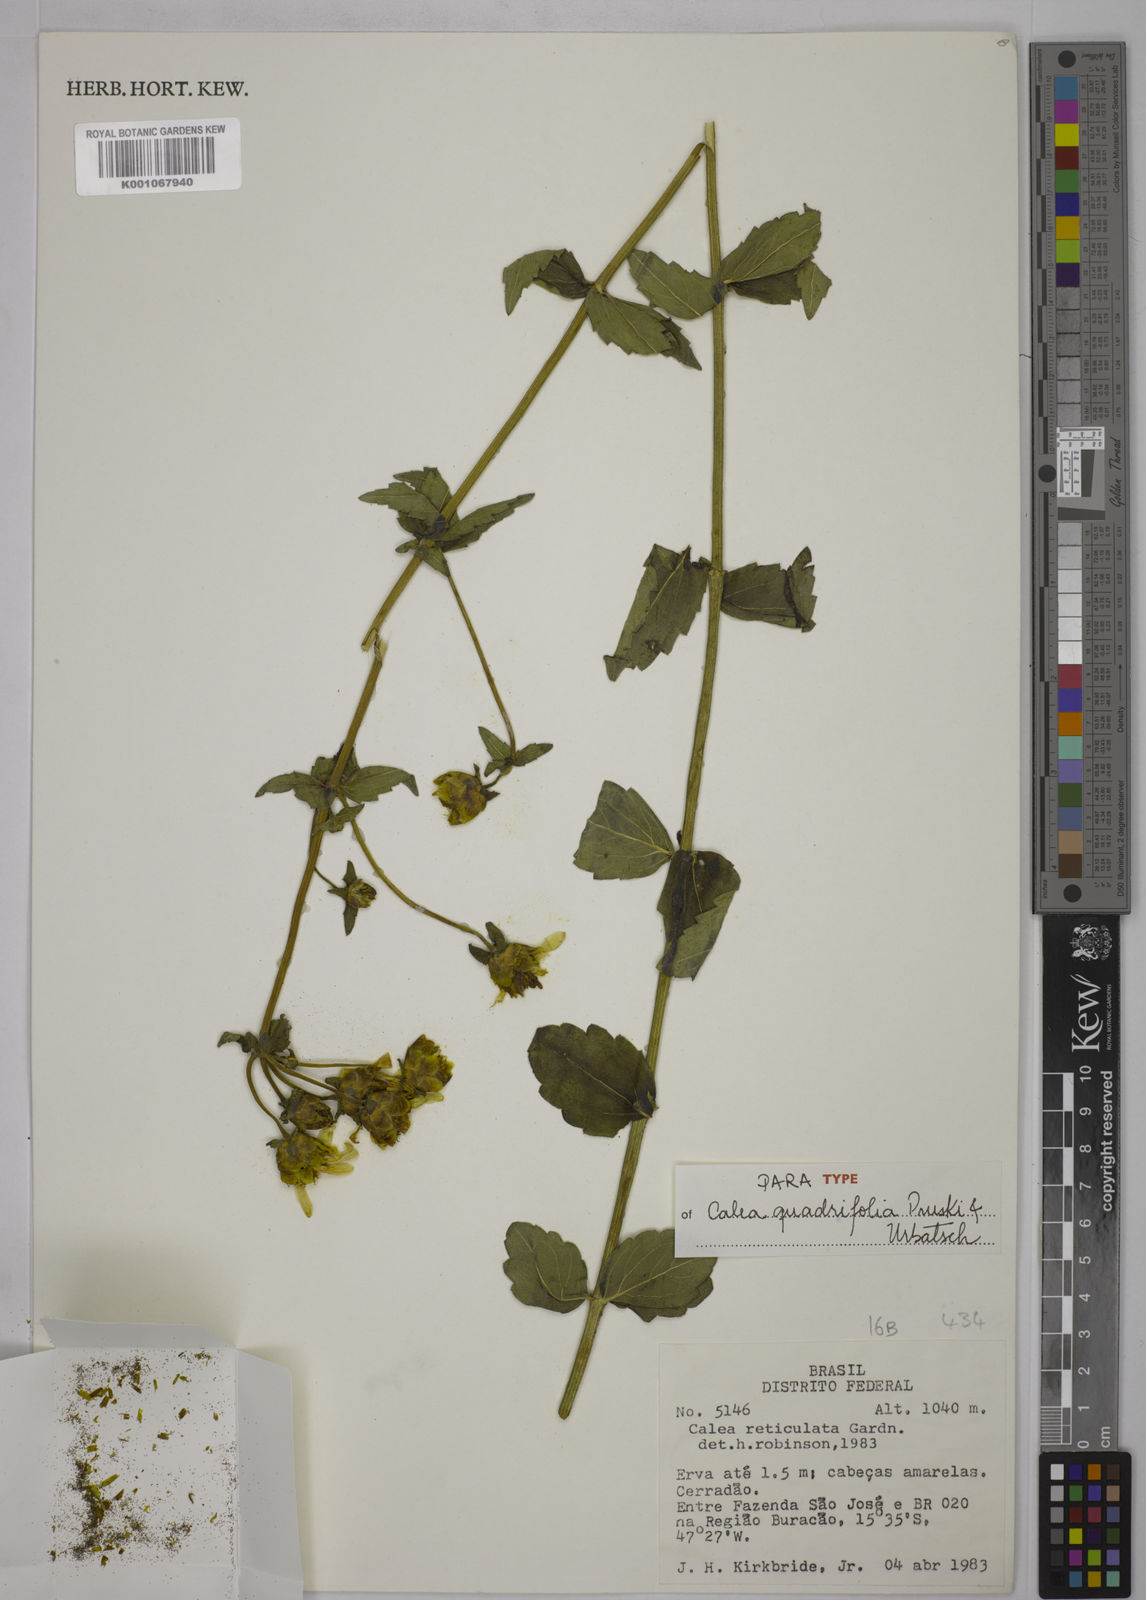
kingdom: Plantae
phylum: Tracheophyta
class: Magnoliopsida
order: Asterales
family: Asteraceae
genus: Calea
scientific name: Calea quadrifolia
